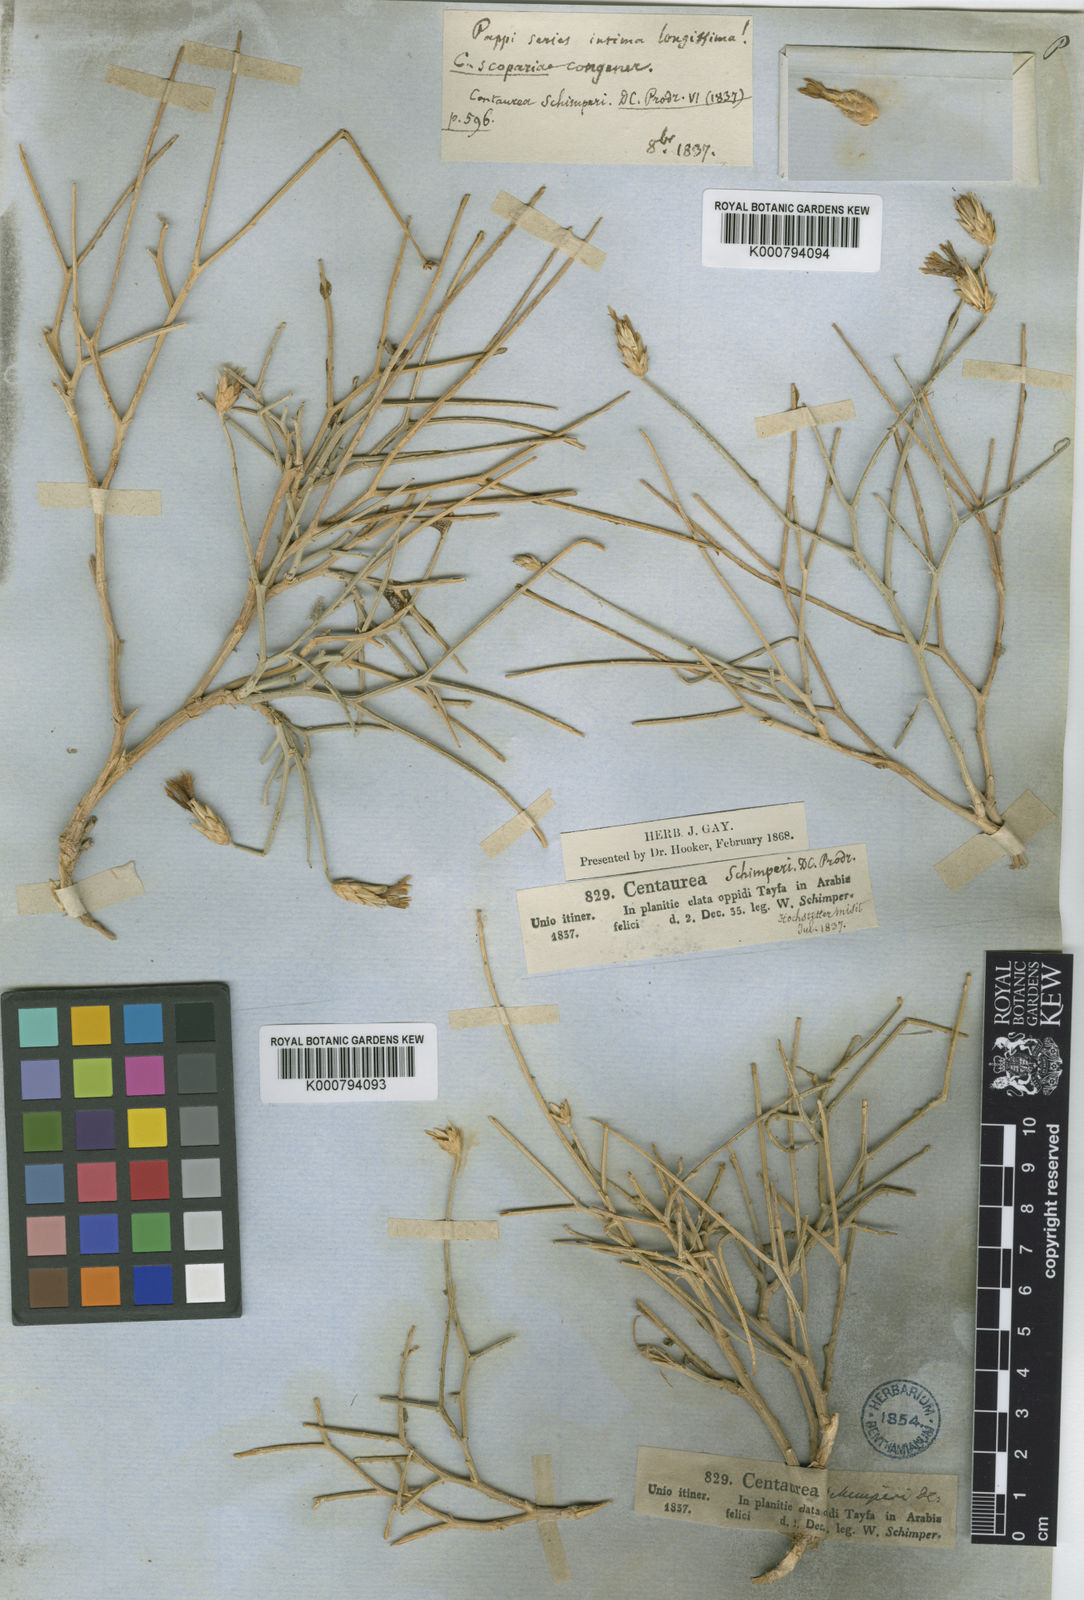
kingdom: Plantae
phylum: Tracheophyta
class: Magnoliopsida
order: Asterales
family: Asteraceae
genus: Centaurea
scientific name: Centaurea schimperi
